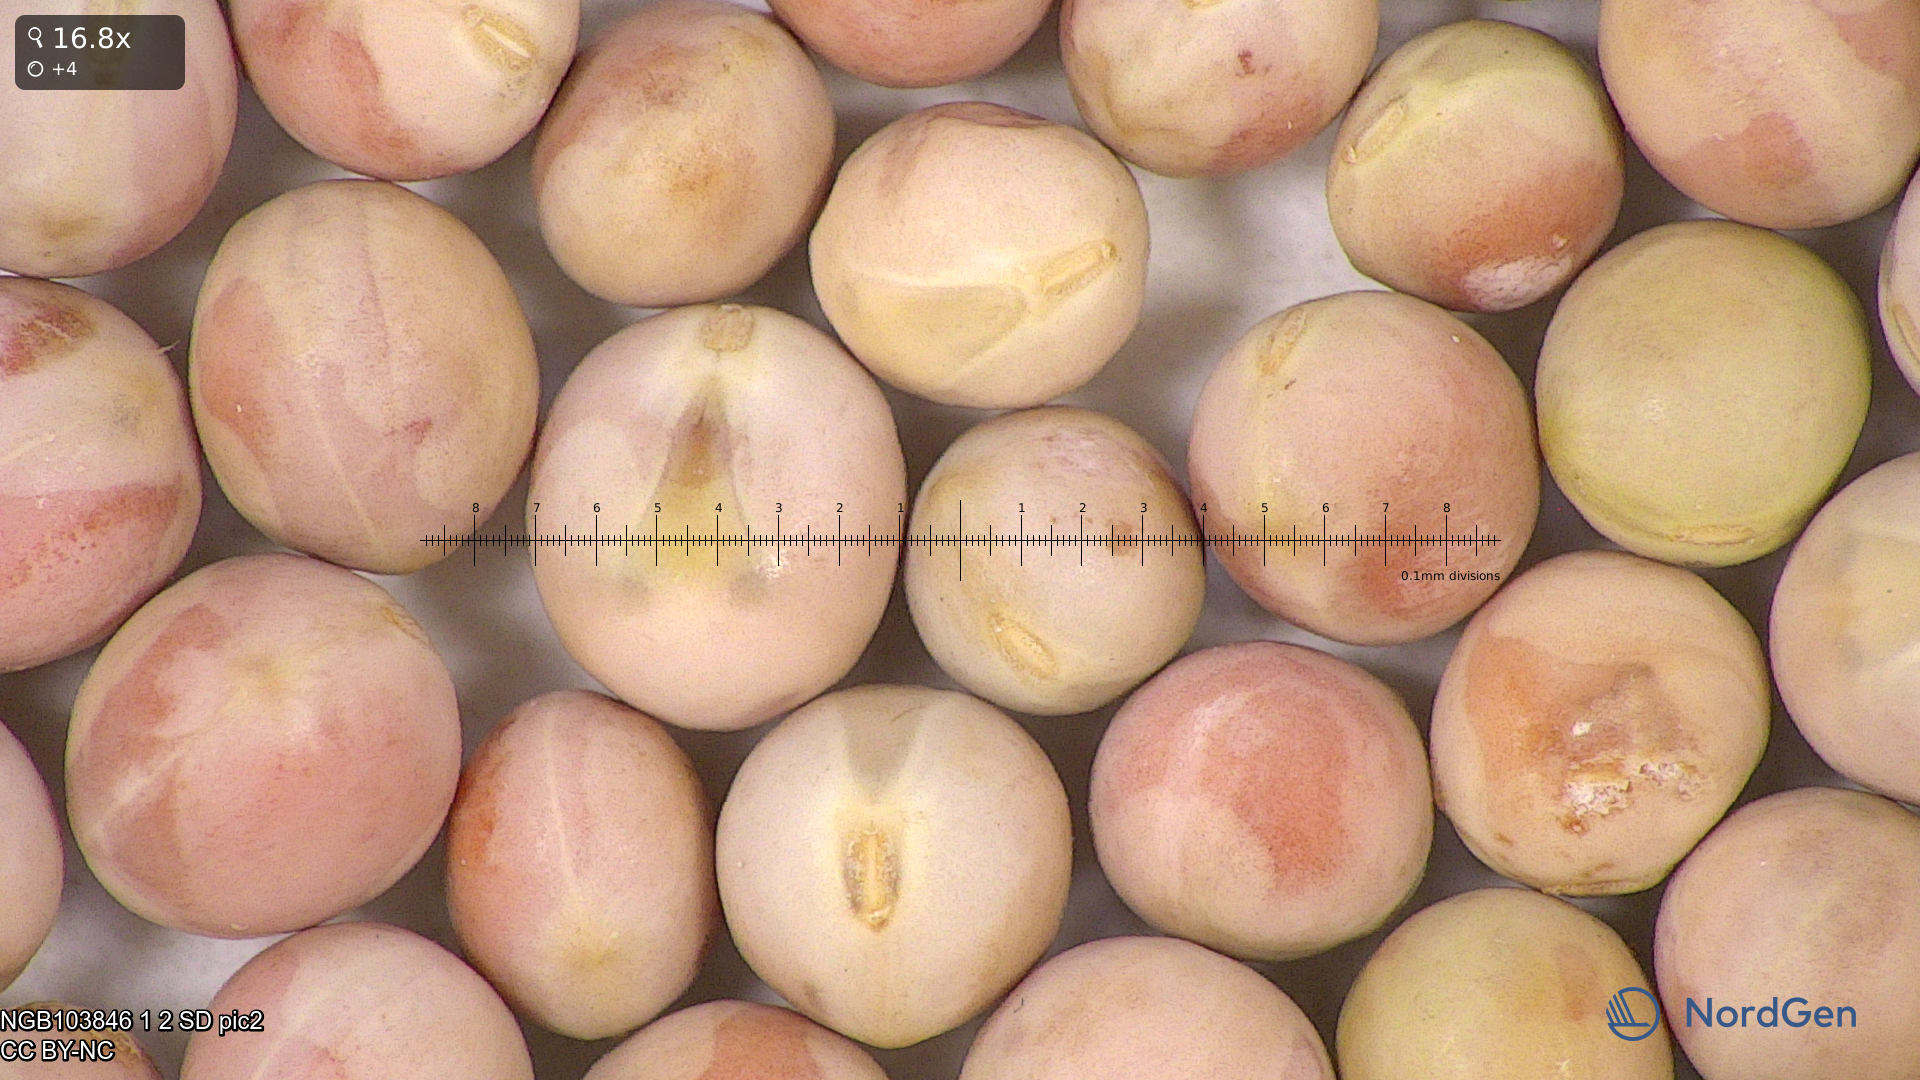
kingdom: Plantae
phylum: Tracheophyta
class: Magnoliopsida
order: Fabales
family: Fabaceae
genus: Lathyrus
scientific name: Lathyrus oleraceus
